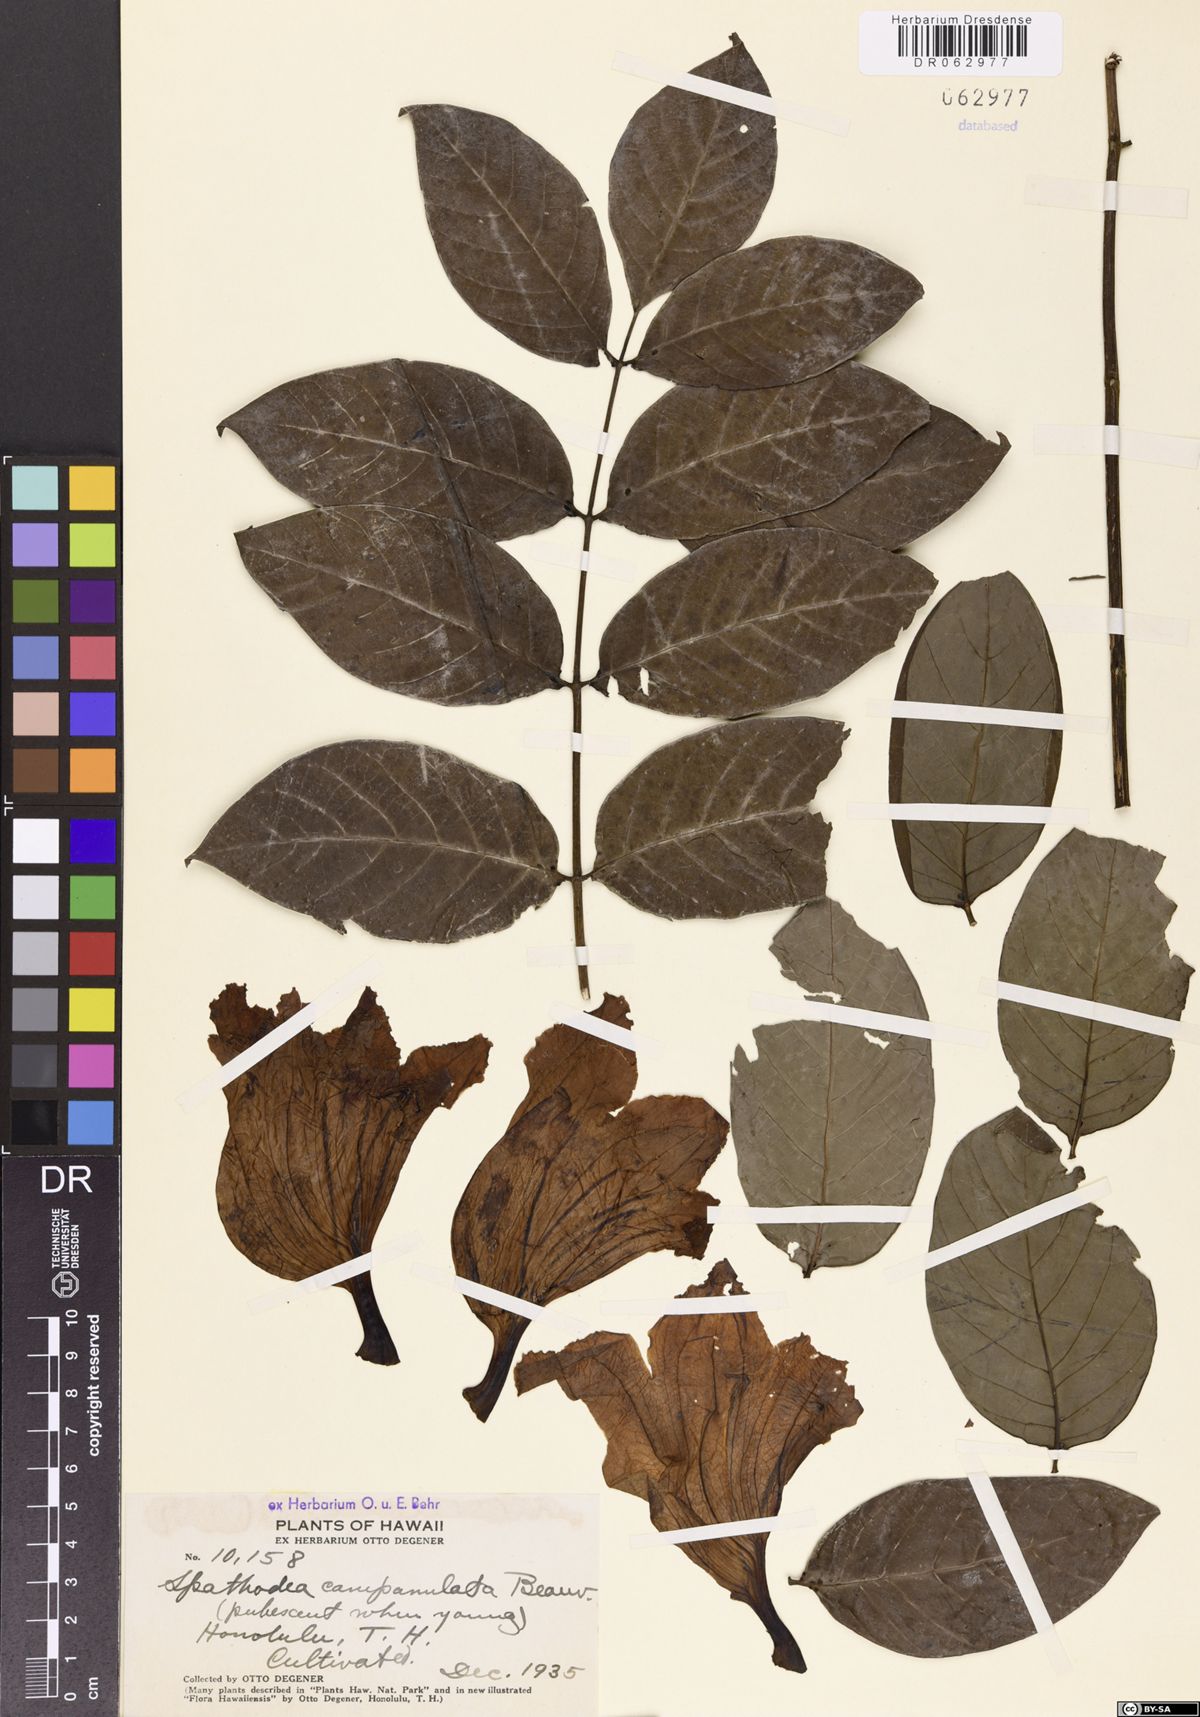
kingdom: Plantae
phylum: Tracheophyta
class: Magnoliopsida
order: Lamiales
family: Bignoniaceae
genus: Spathodea
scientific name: Spathodea campanulata
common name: African tuliptree
